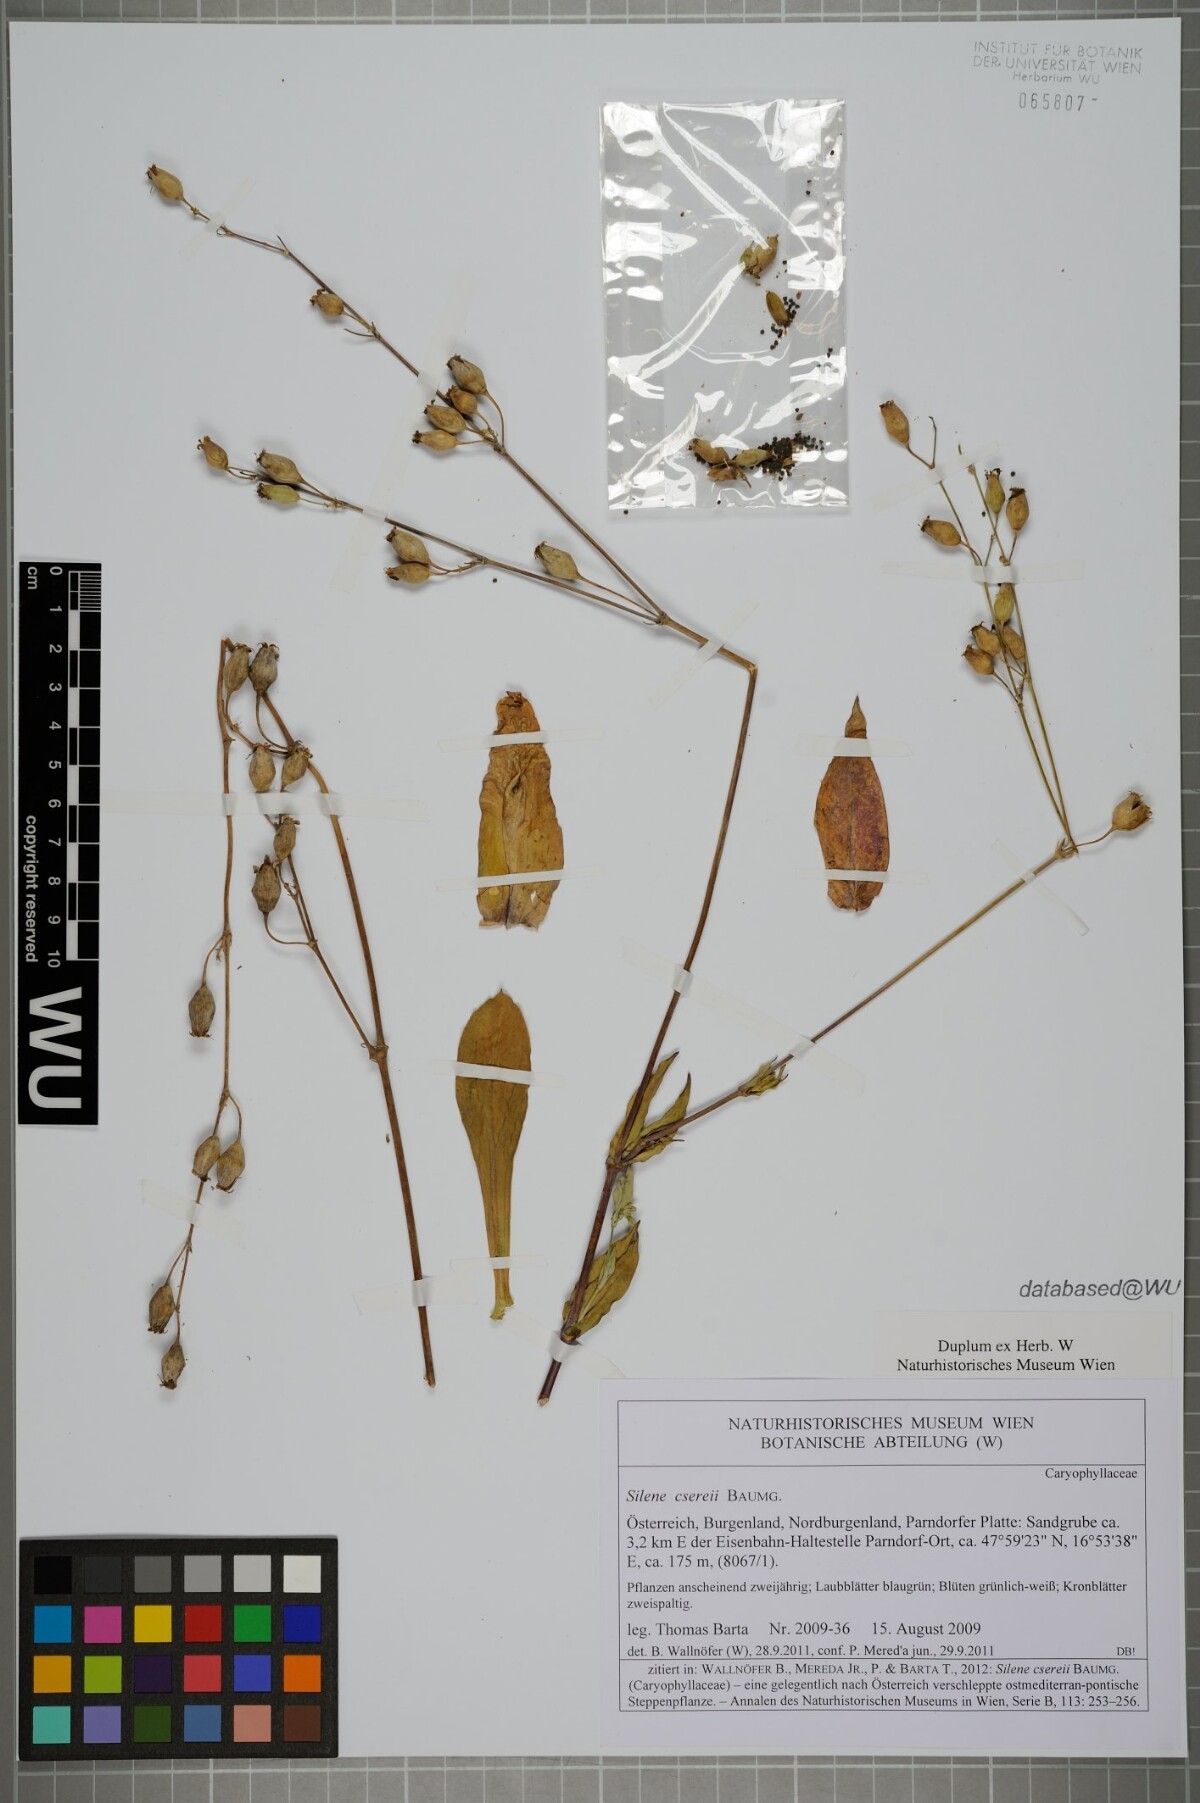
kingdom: Plantae
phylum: Tracheophyta
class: Magnoliopsida
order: Caryophyllales
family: Caryophyllaceae
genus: Silene
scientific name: Silene csereii
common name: Balkan catchfly
